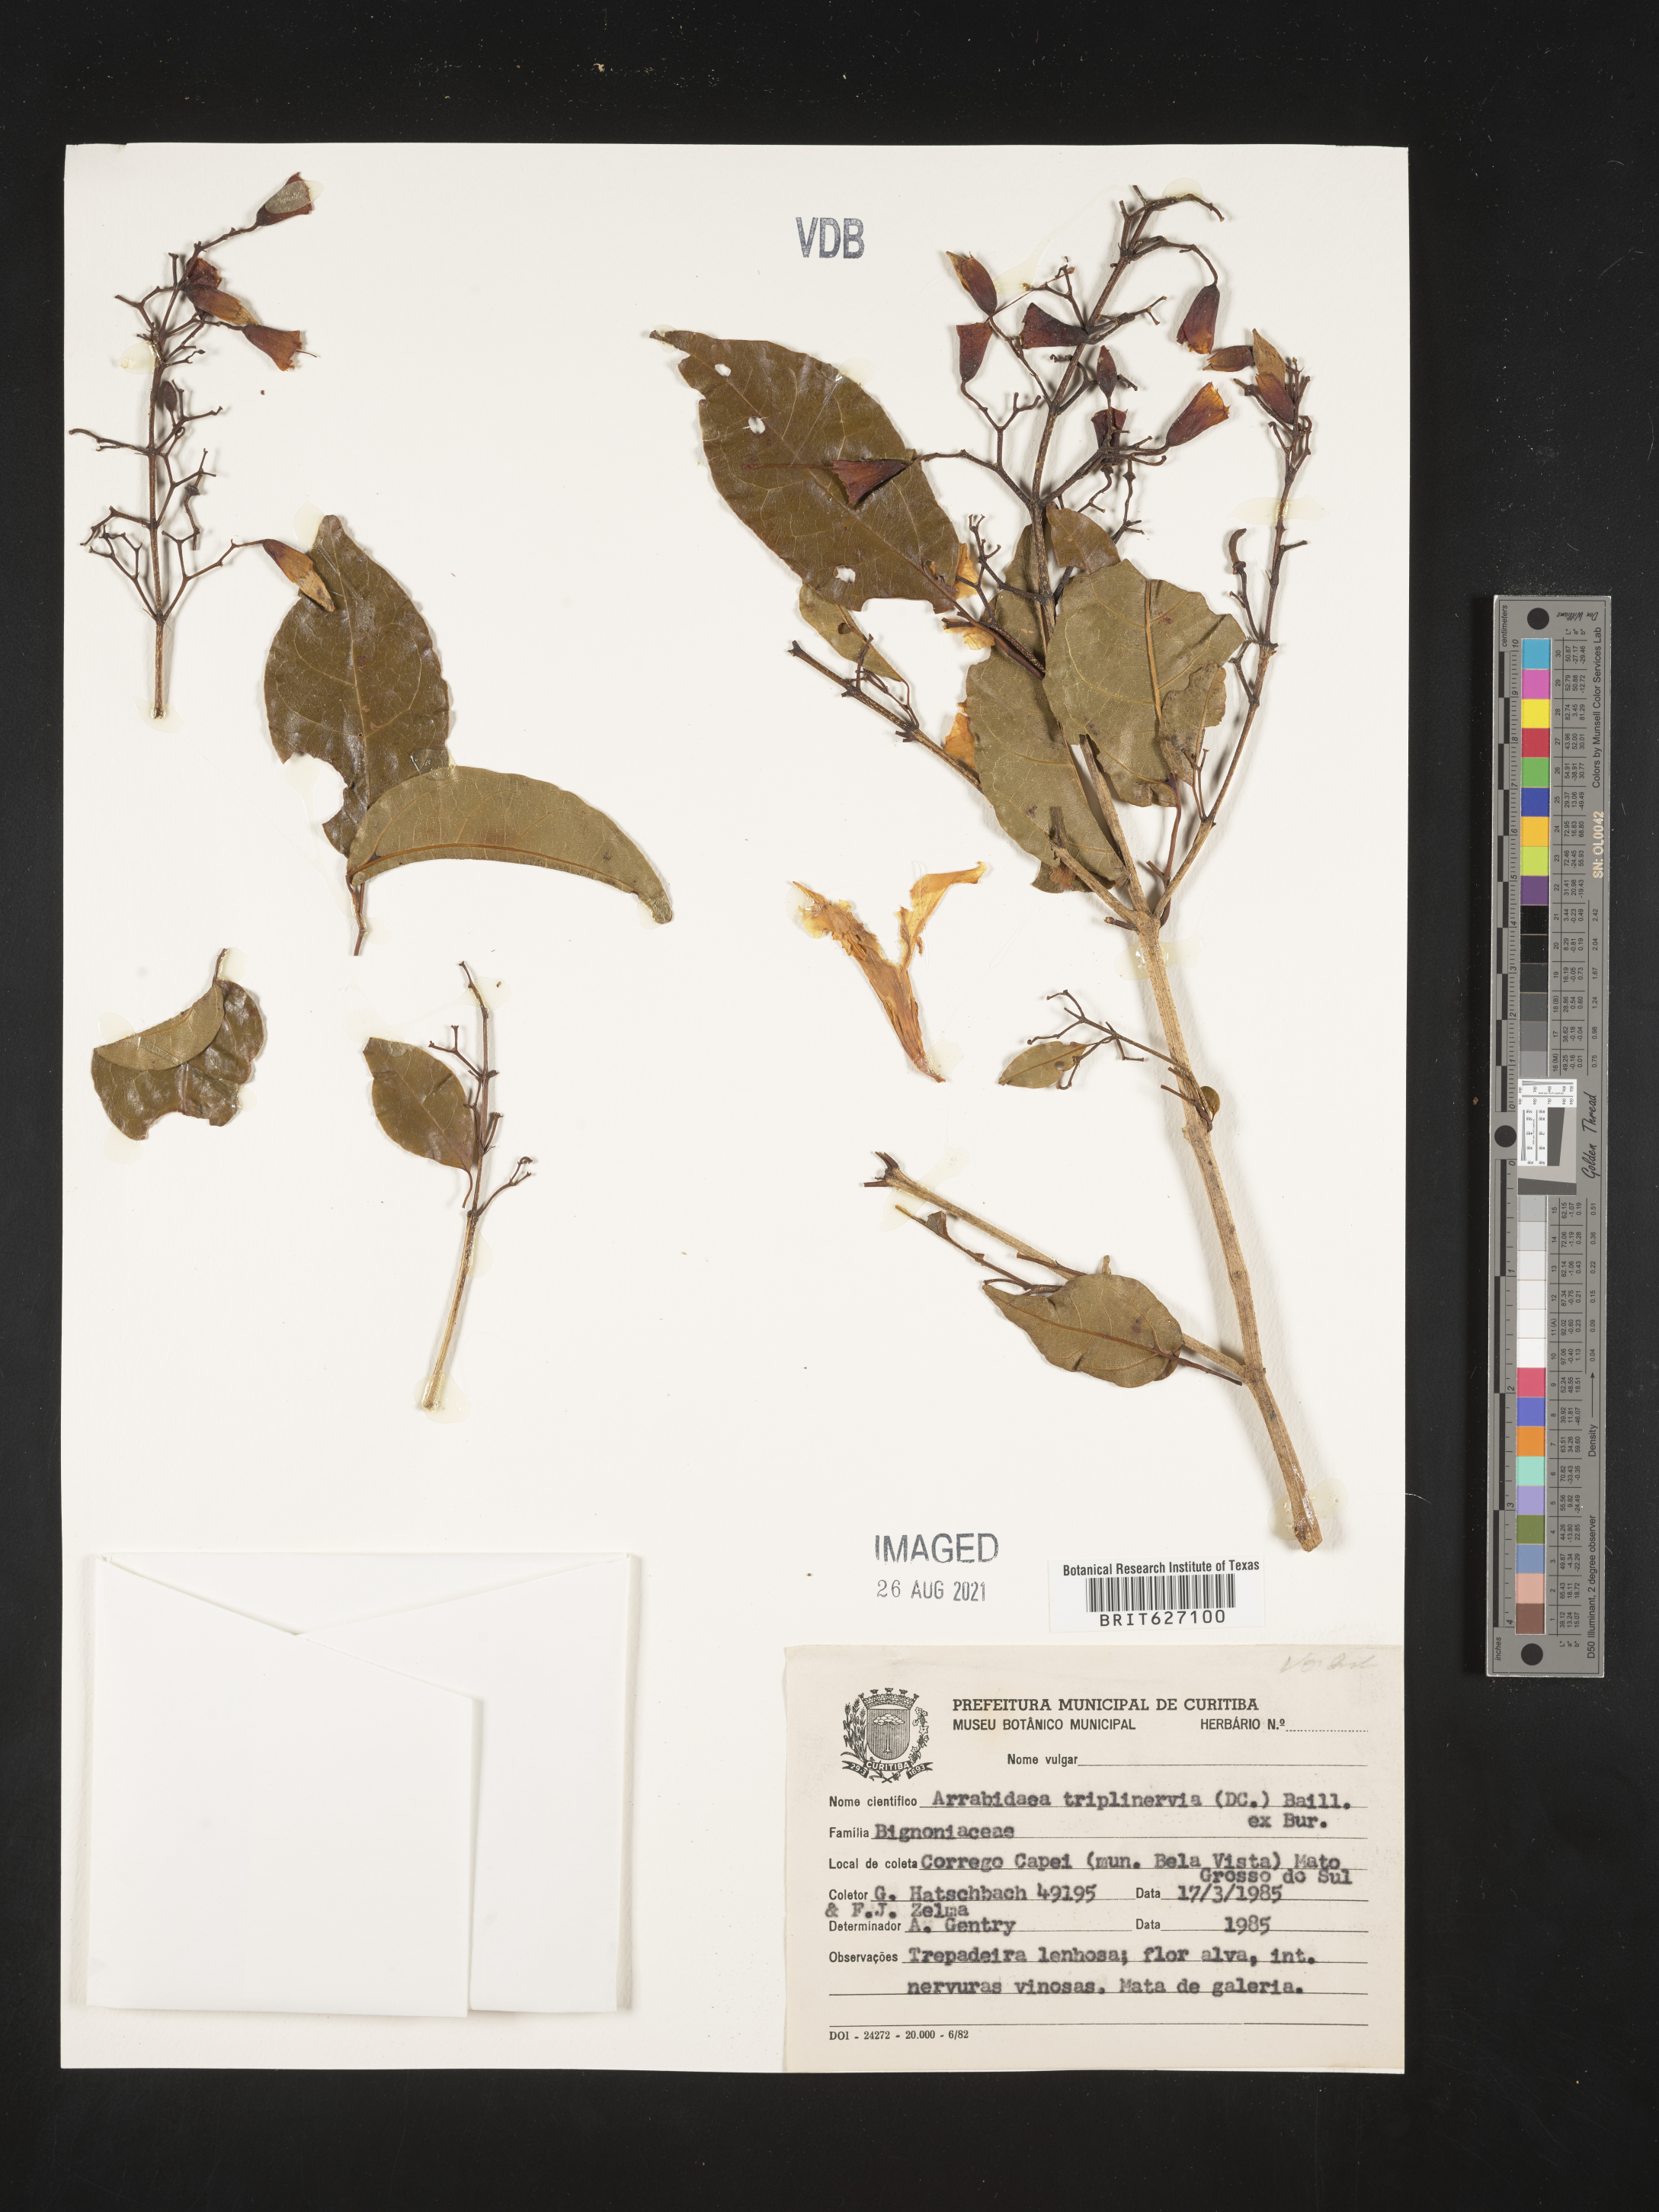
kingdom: Plantae
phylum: Tracheophyta
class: Magnoliopsida
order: Lamiales
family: Bignoniaceae
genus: Fridericia
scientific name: Fridericia triplinervia
